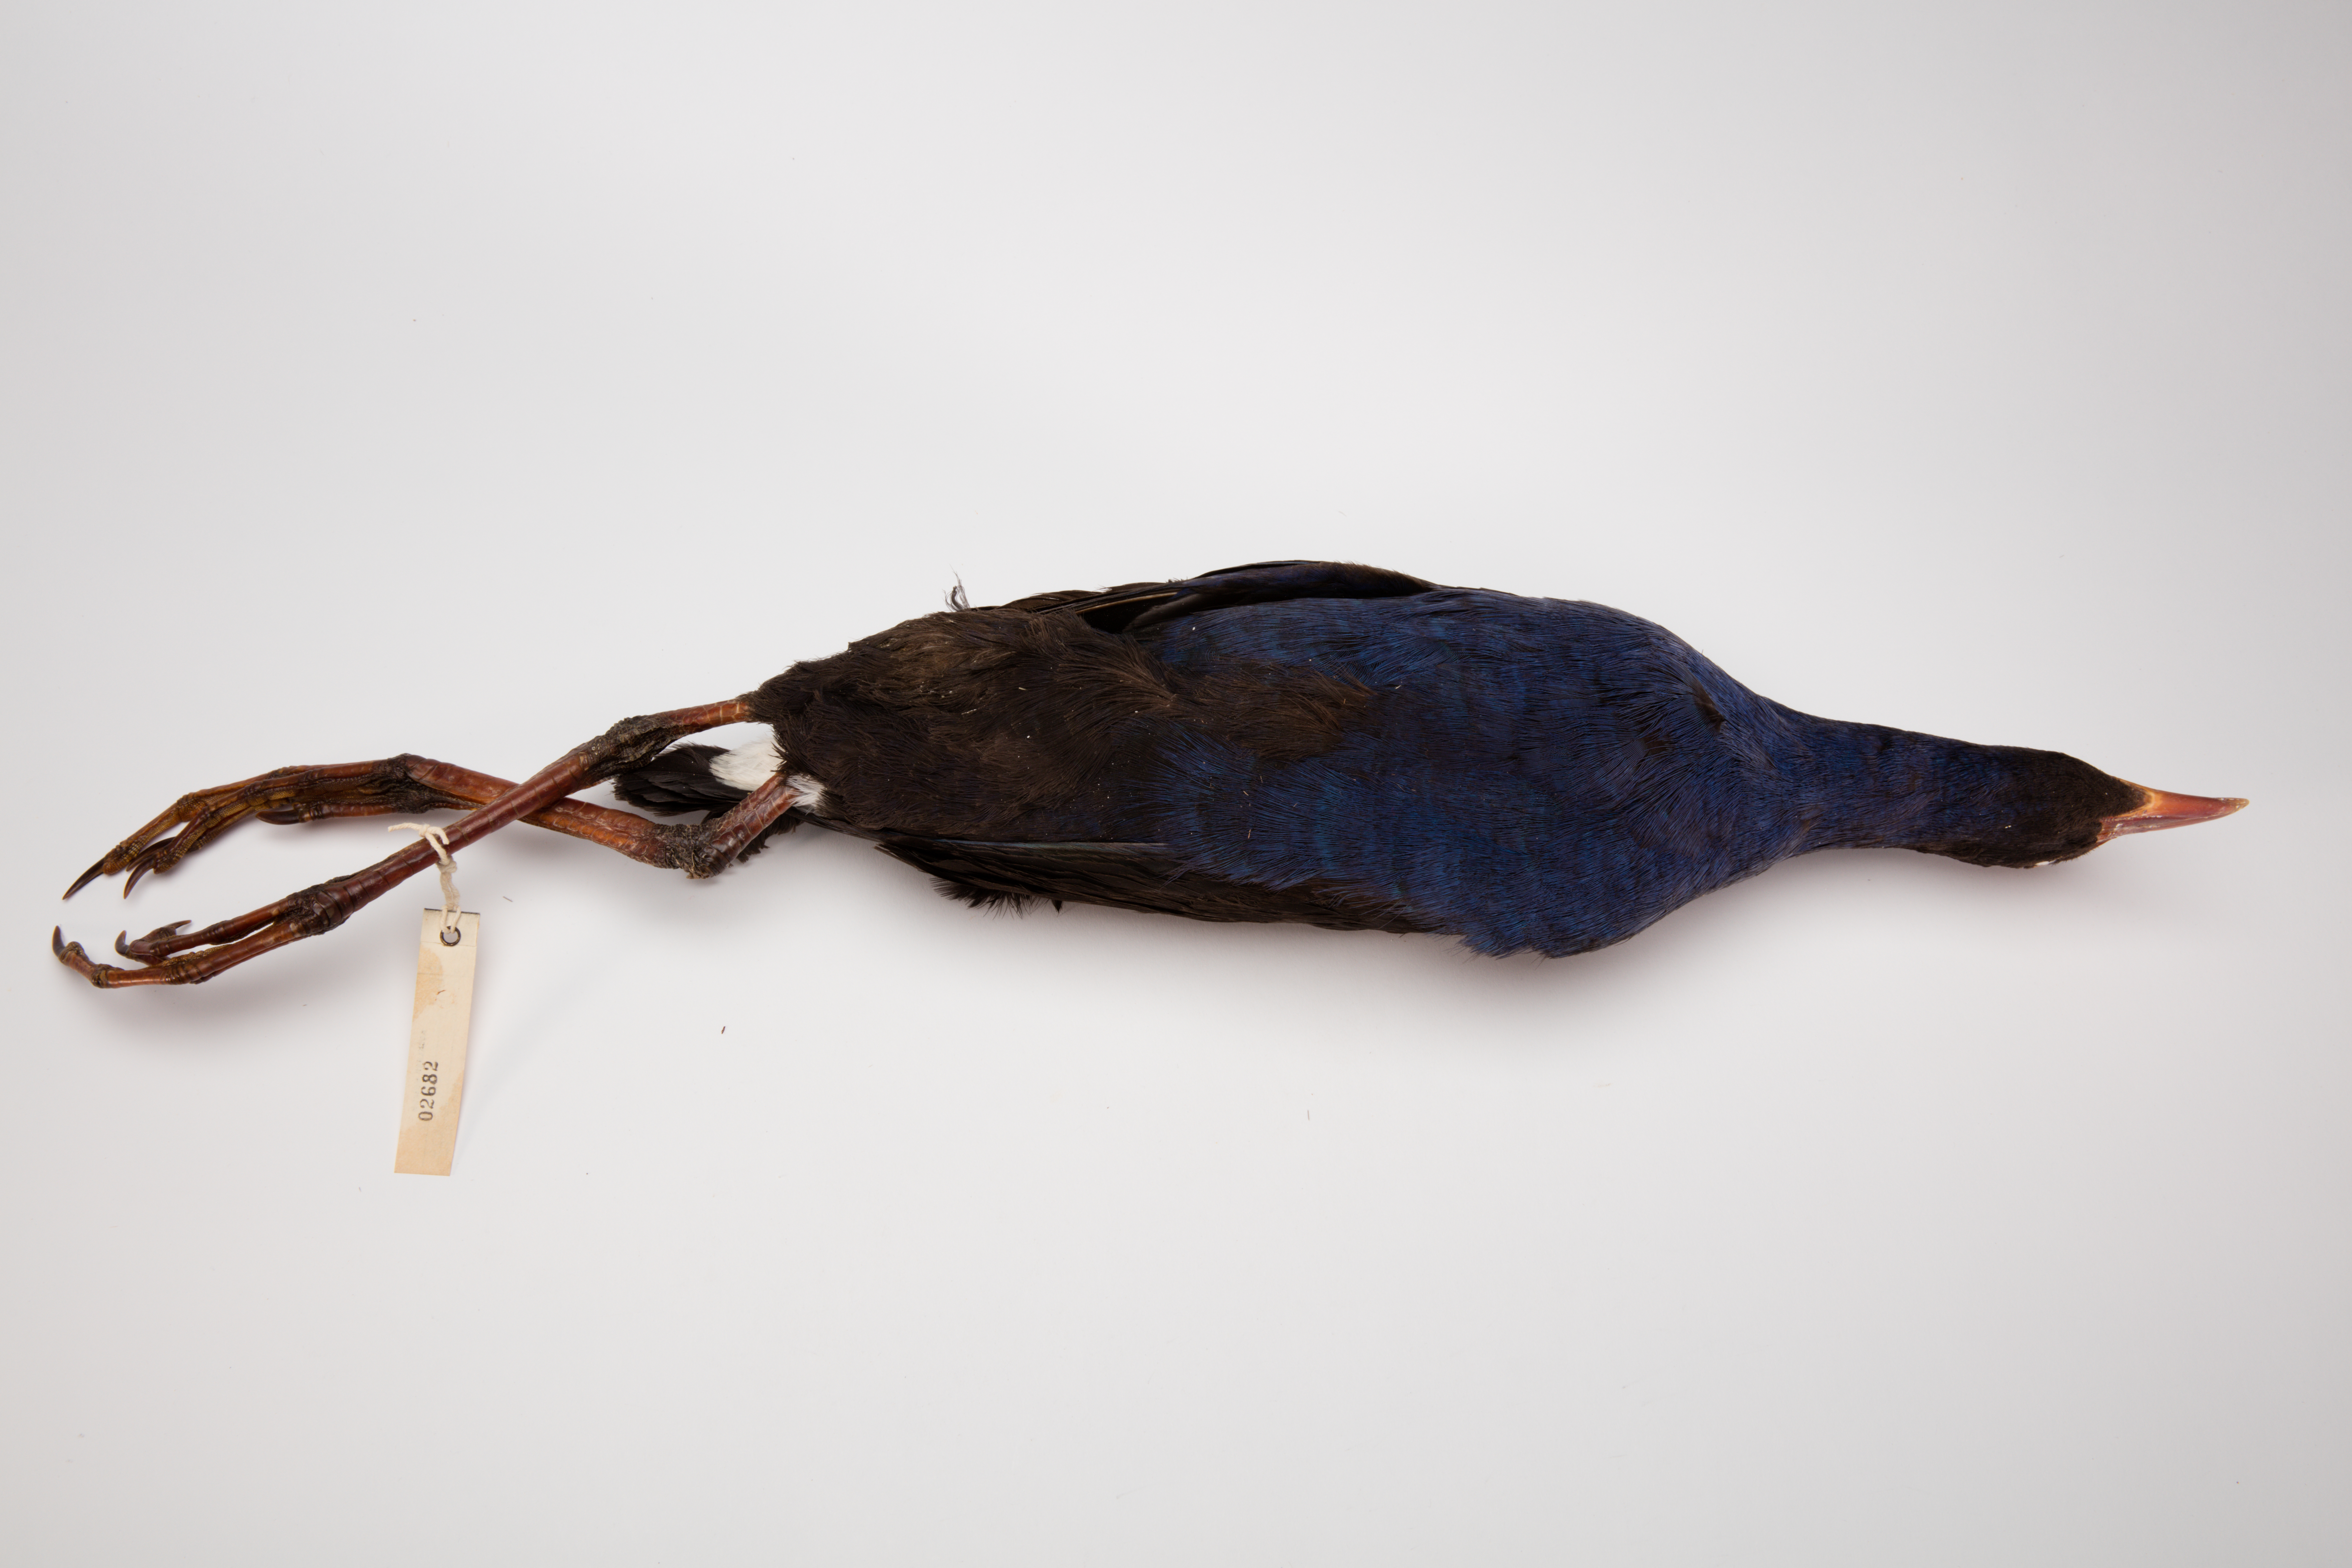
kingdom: Animalia
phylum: Chordata
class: Aves
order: Gruiformes
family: Rallidae
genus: Porphyrio
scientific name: Porphyrio melanotus
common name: Australasian swamphen
